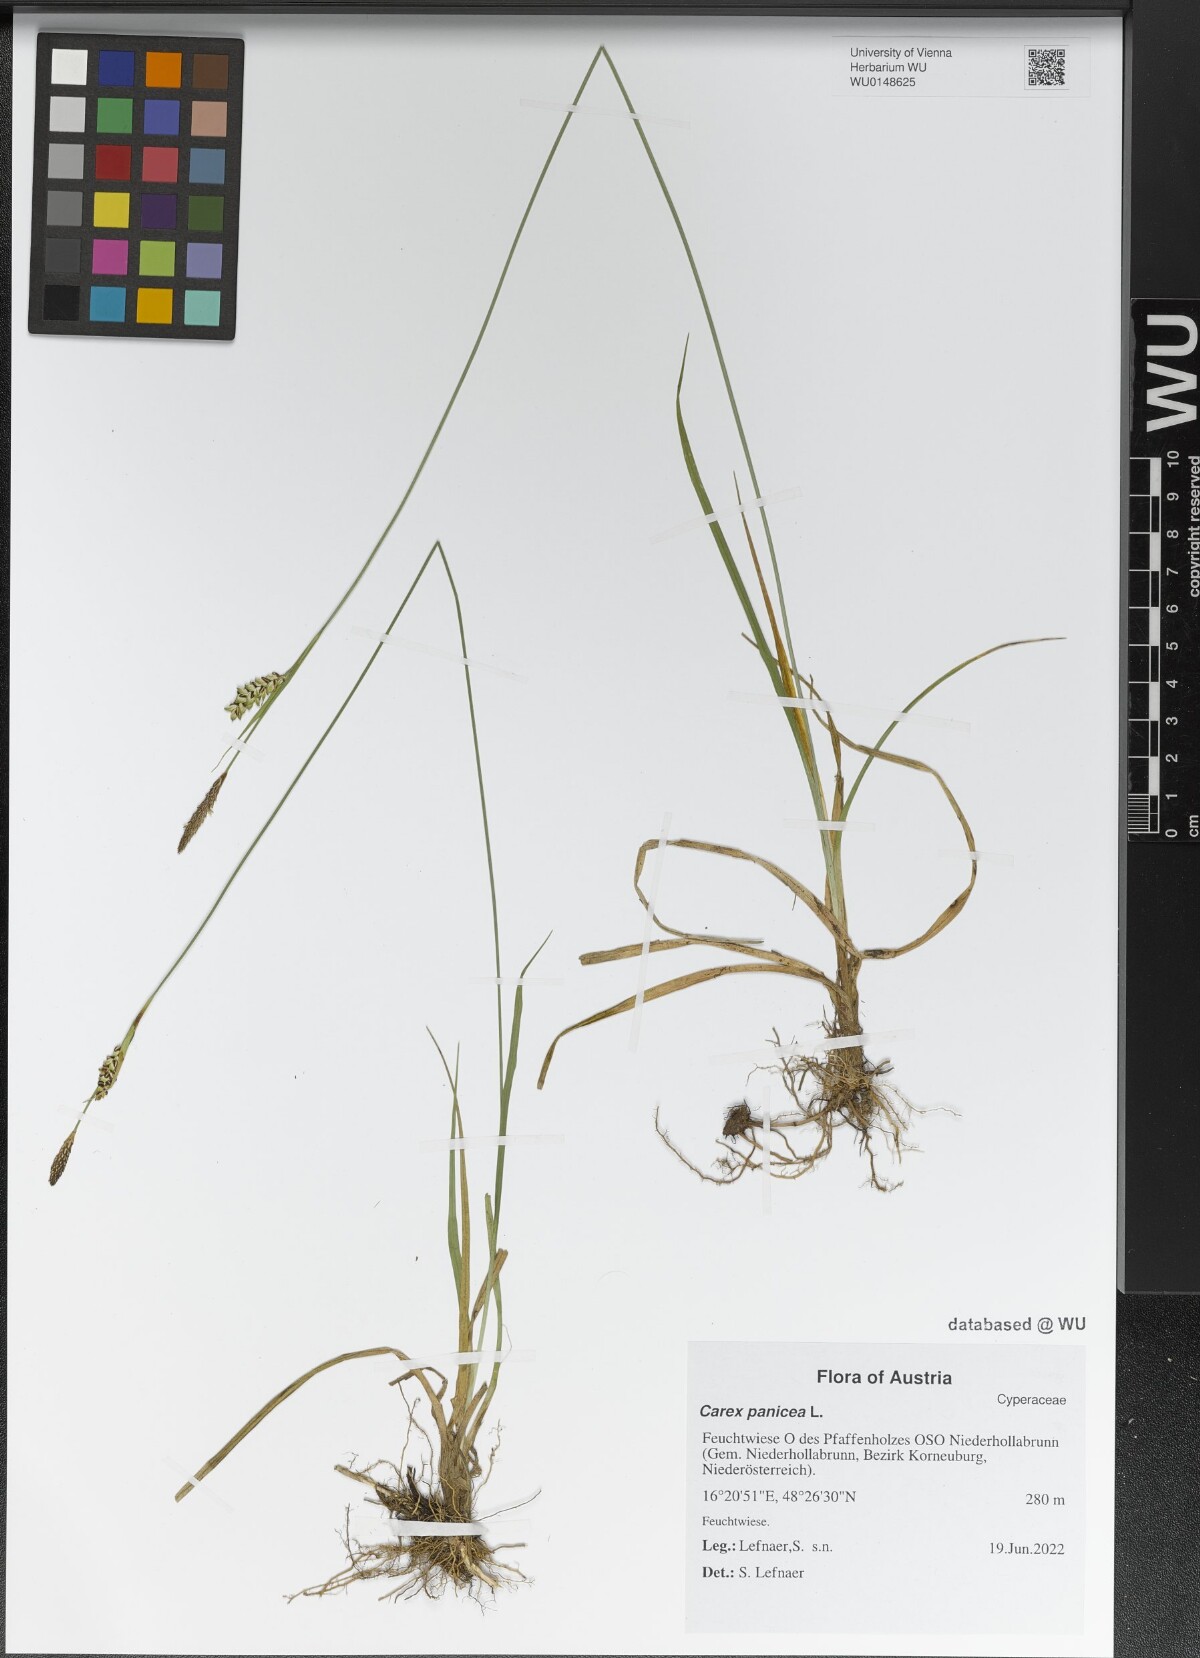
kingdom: Plantae
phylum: Tracheophyta
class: Liliopsida
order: Poales
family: Cyperaceae
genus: Carex
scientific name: Carex panicea
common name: Carnation sedge
